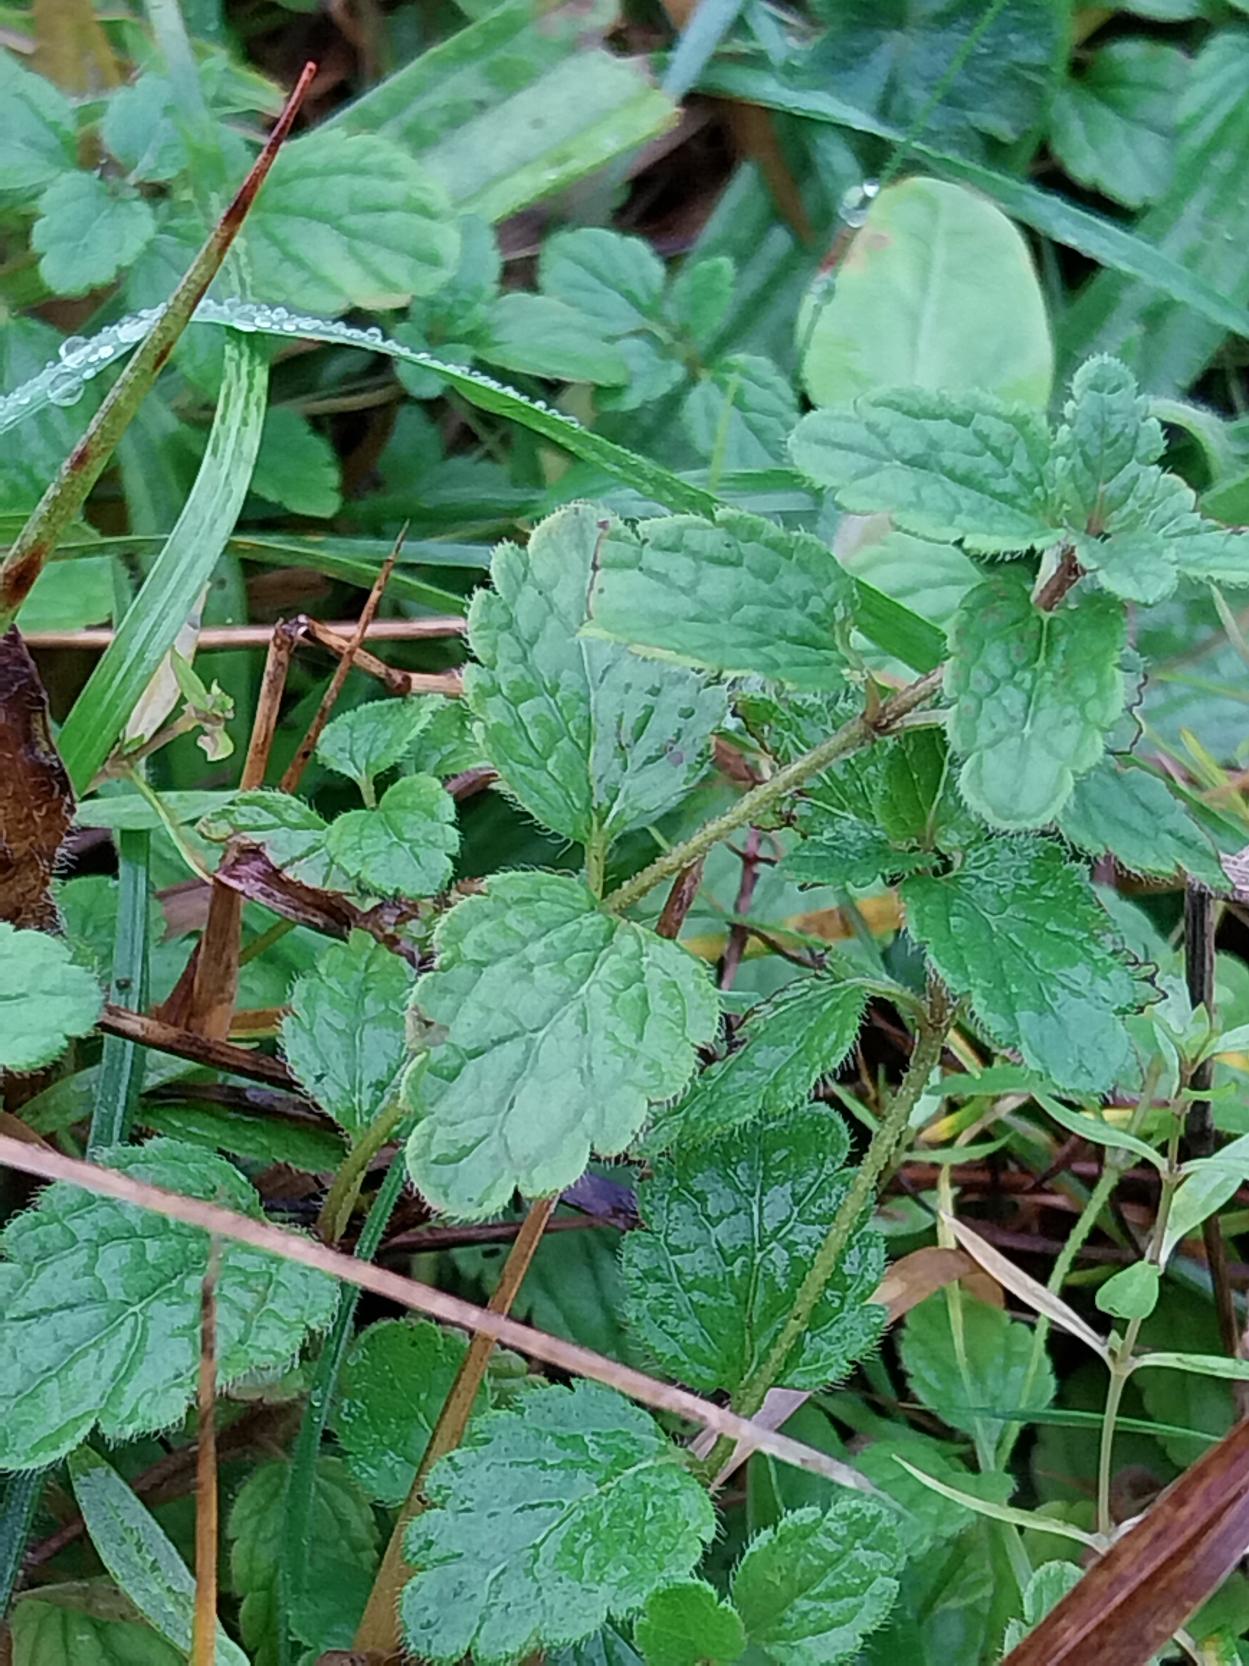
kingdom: Plantae
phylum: Tracheophyta
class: Magnoliopsida
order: Lamiales
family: Plantaginaceae
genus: Veronica
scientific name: Veronica chamaedrys
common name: Tveskægget ærenpris
